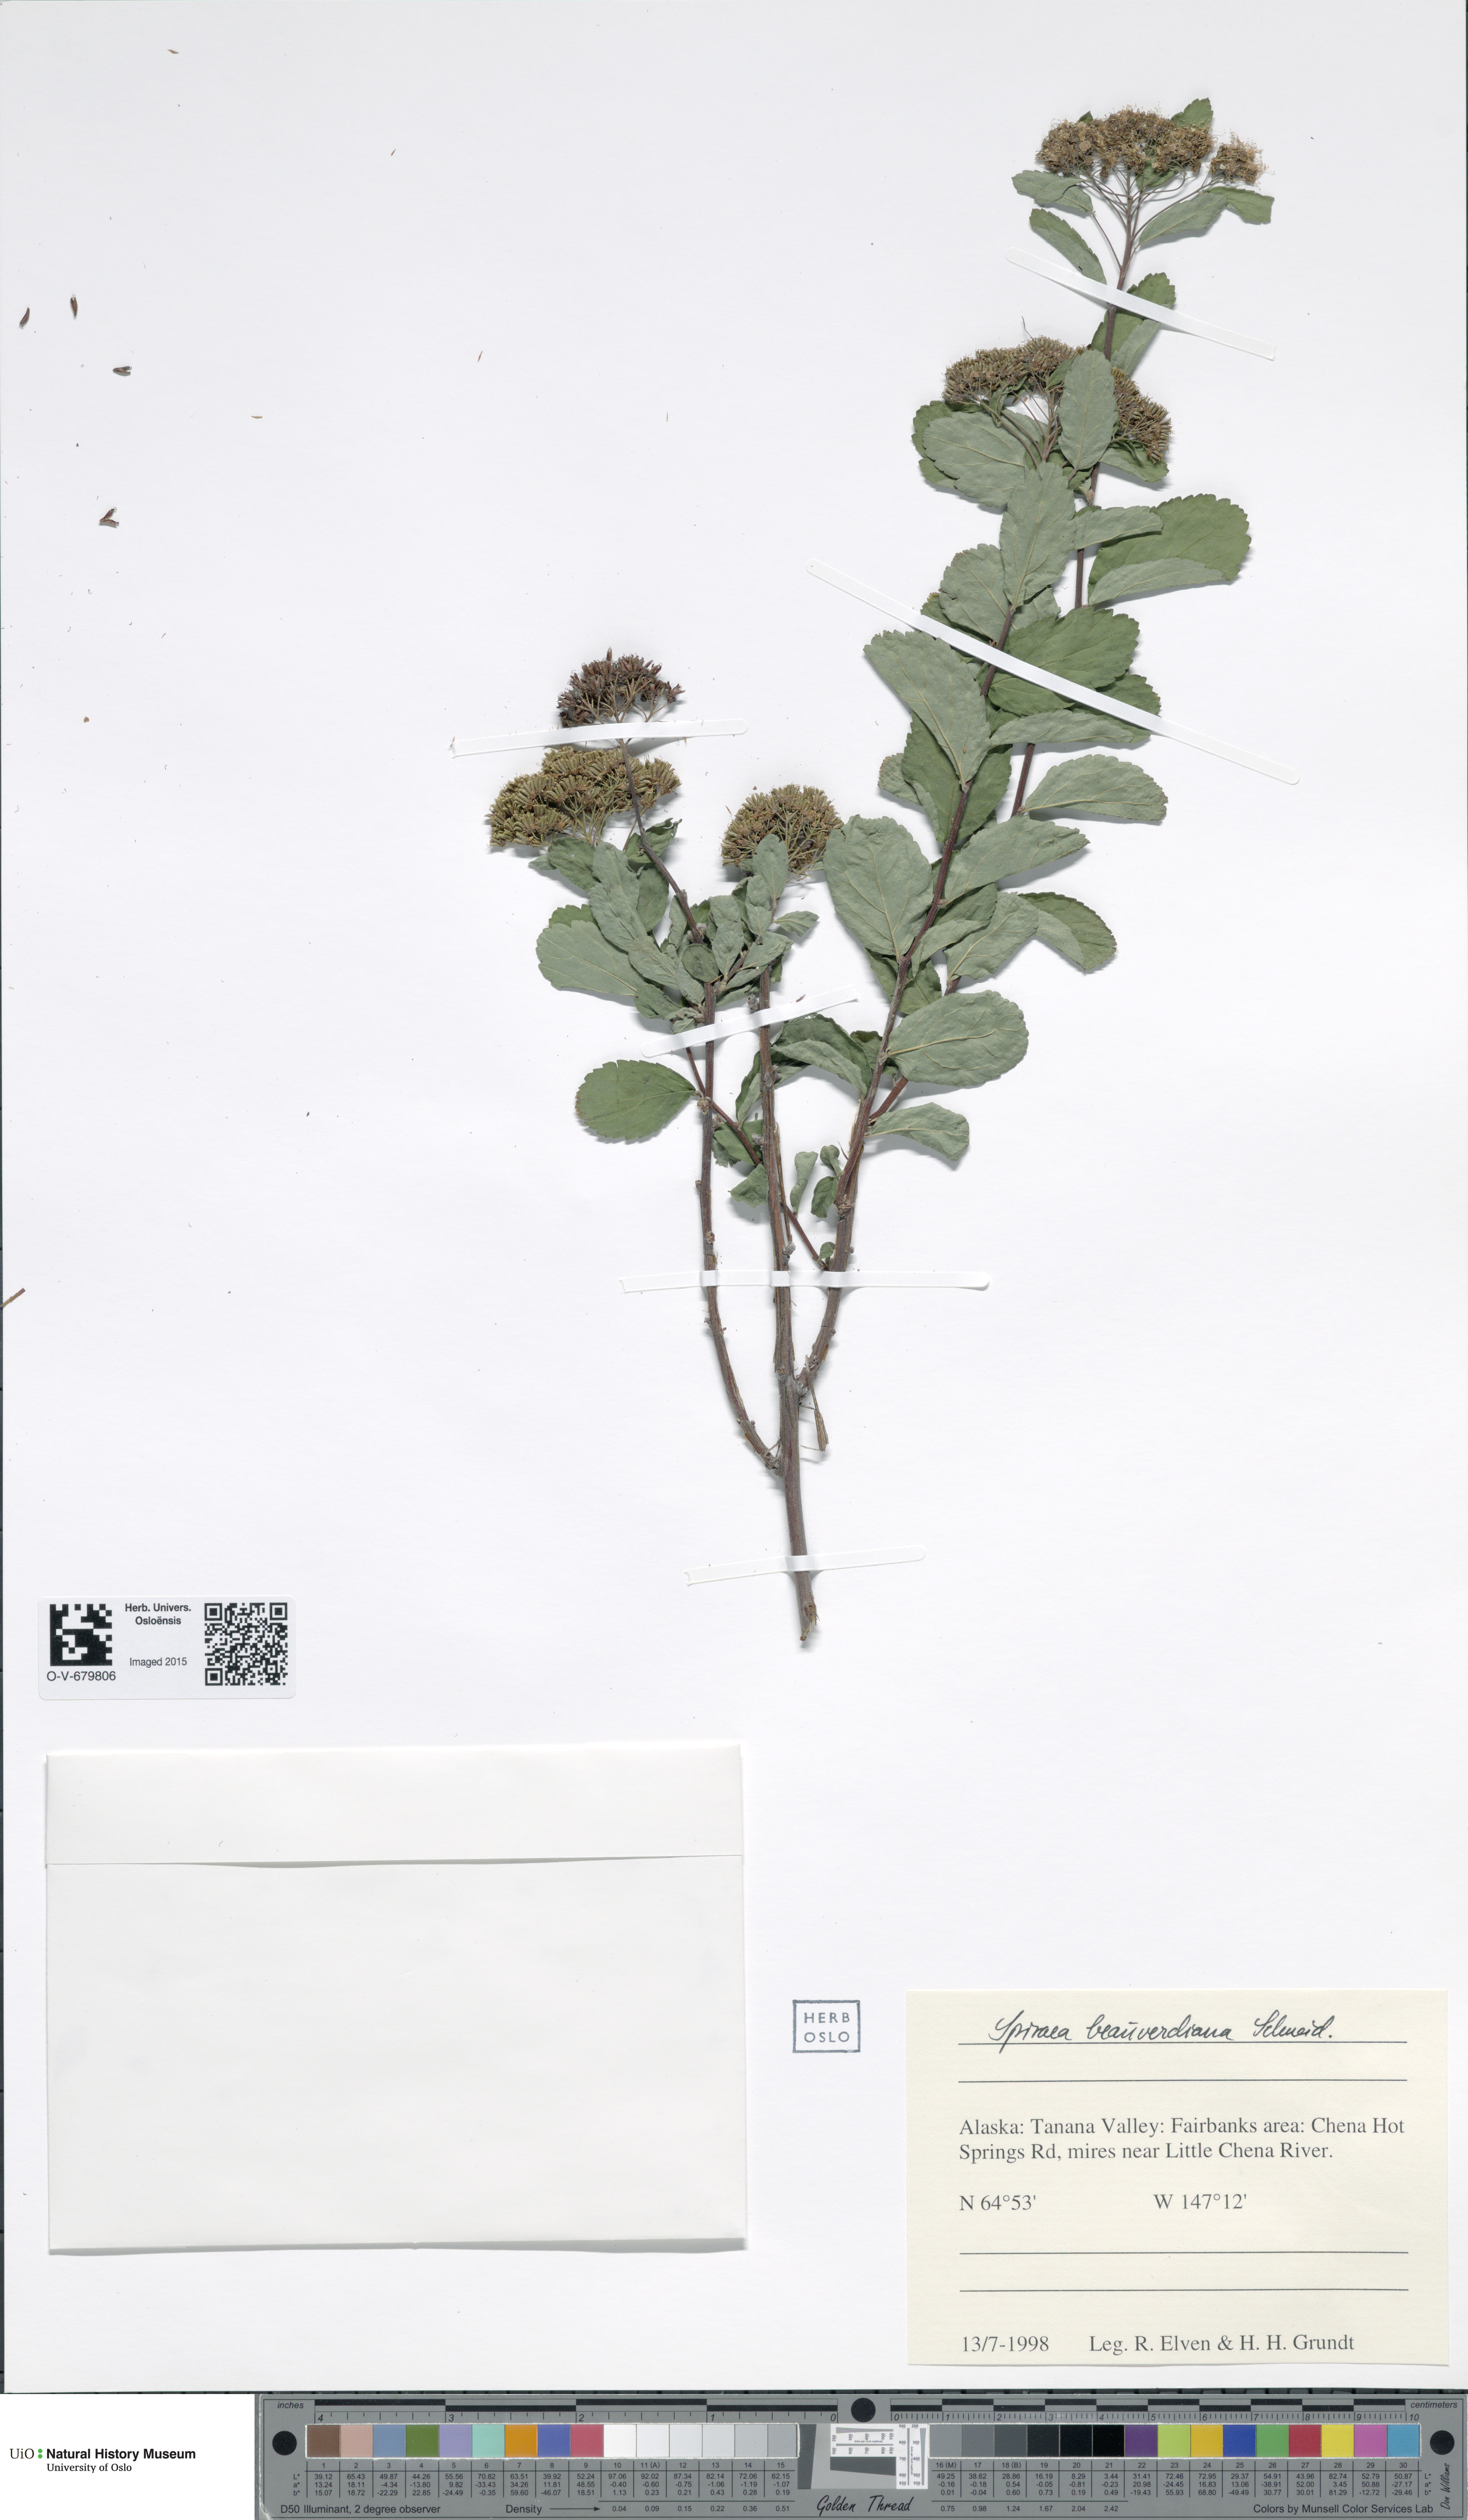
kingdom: Plantae
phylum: Tracheophyta
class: Magnoliopsida
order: Rosales
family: Rosaceae
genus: Spiraea
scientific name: Spiraea betulifolia
